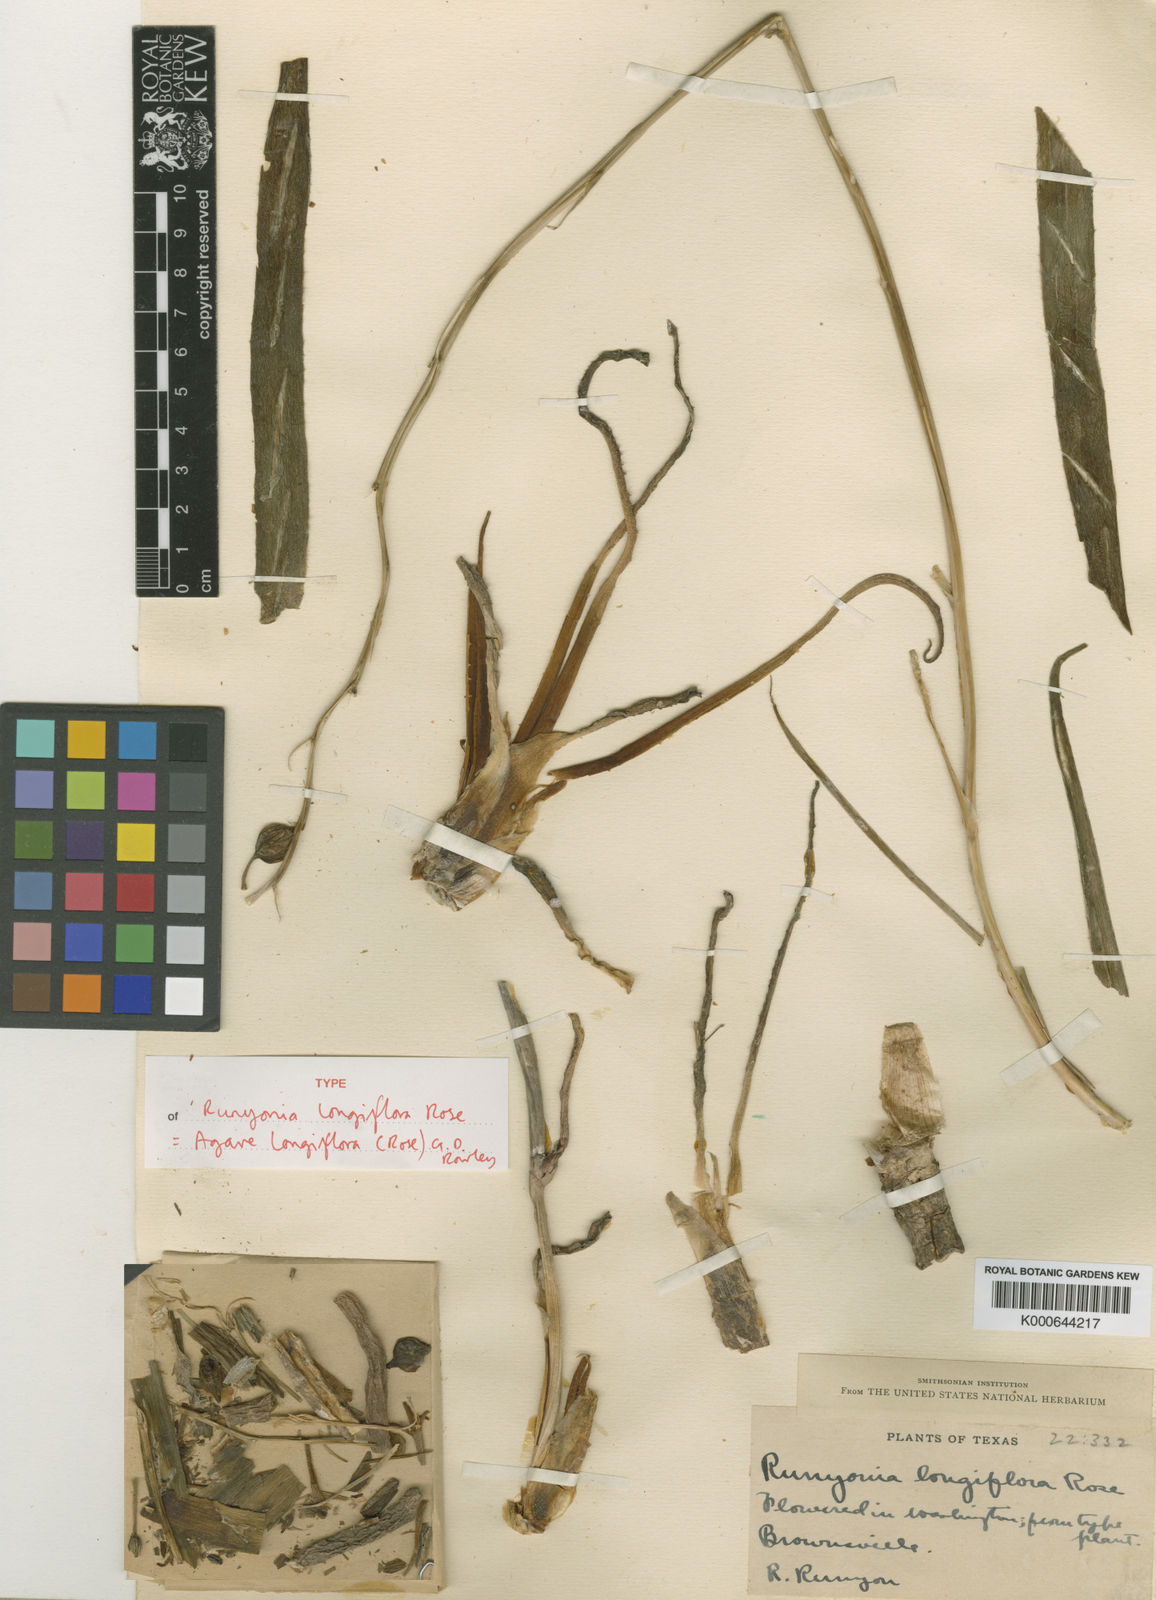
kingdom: Plantae
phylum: Tracheophyta
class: Liliopsida
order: Asparagales
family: Asparagaceae
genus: Agave
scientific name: Agave longiflora
